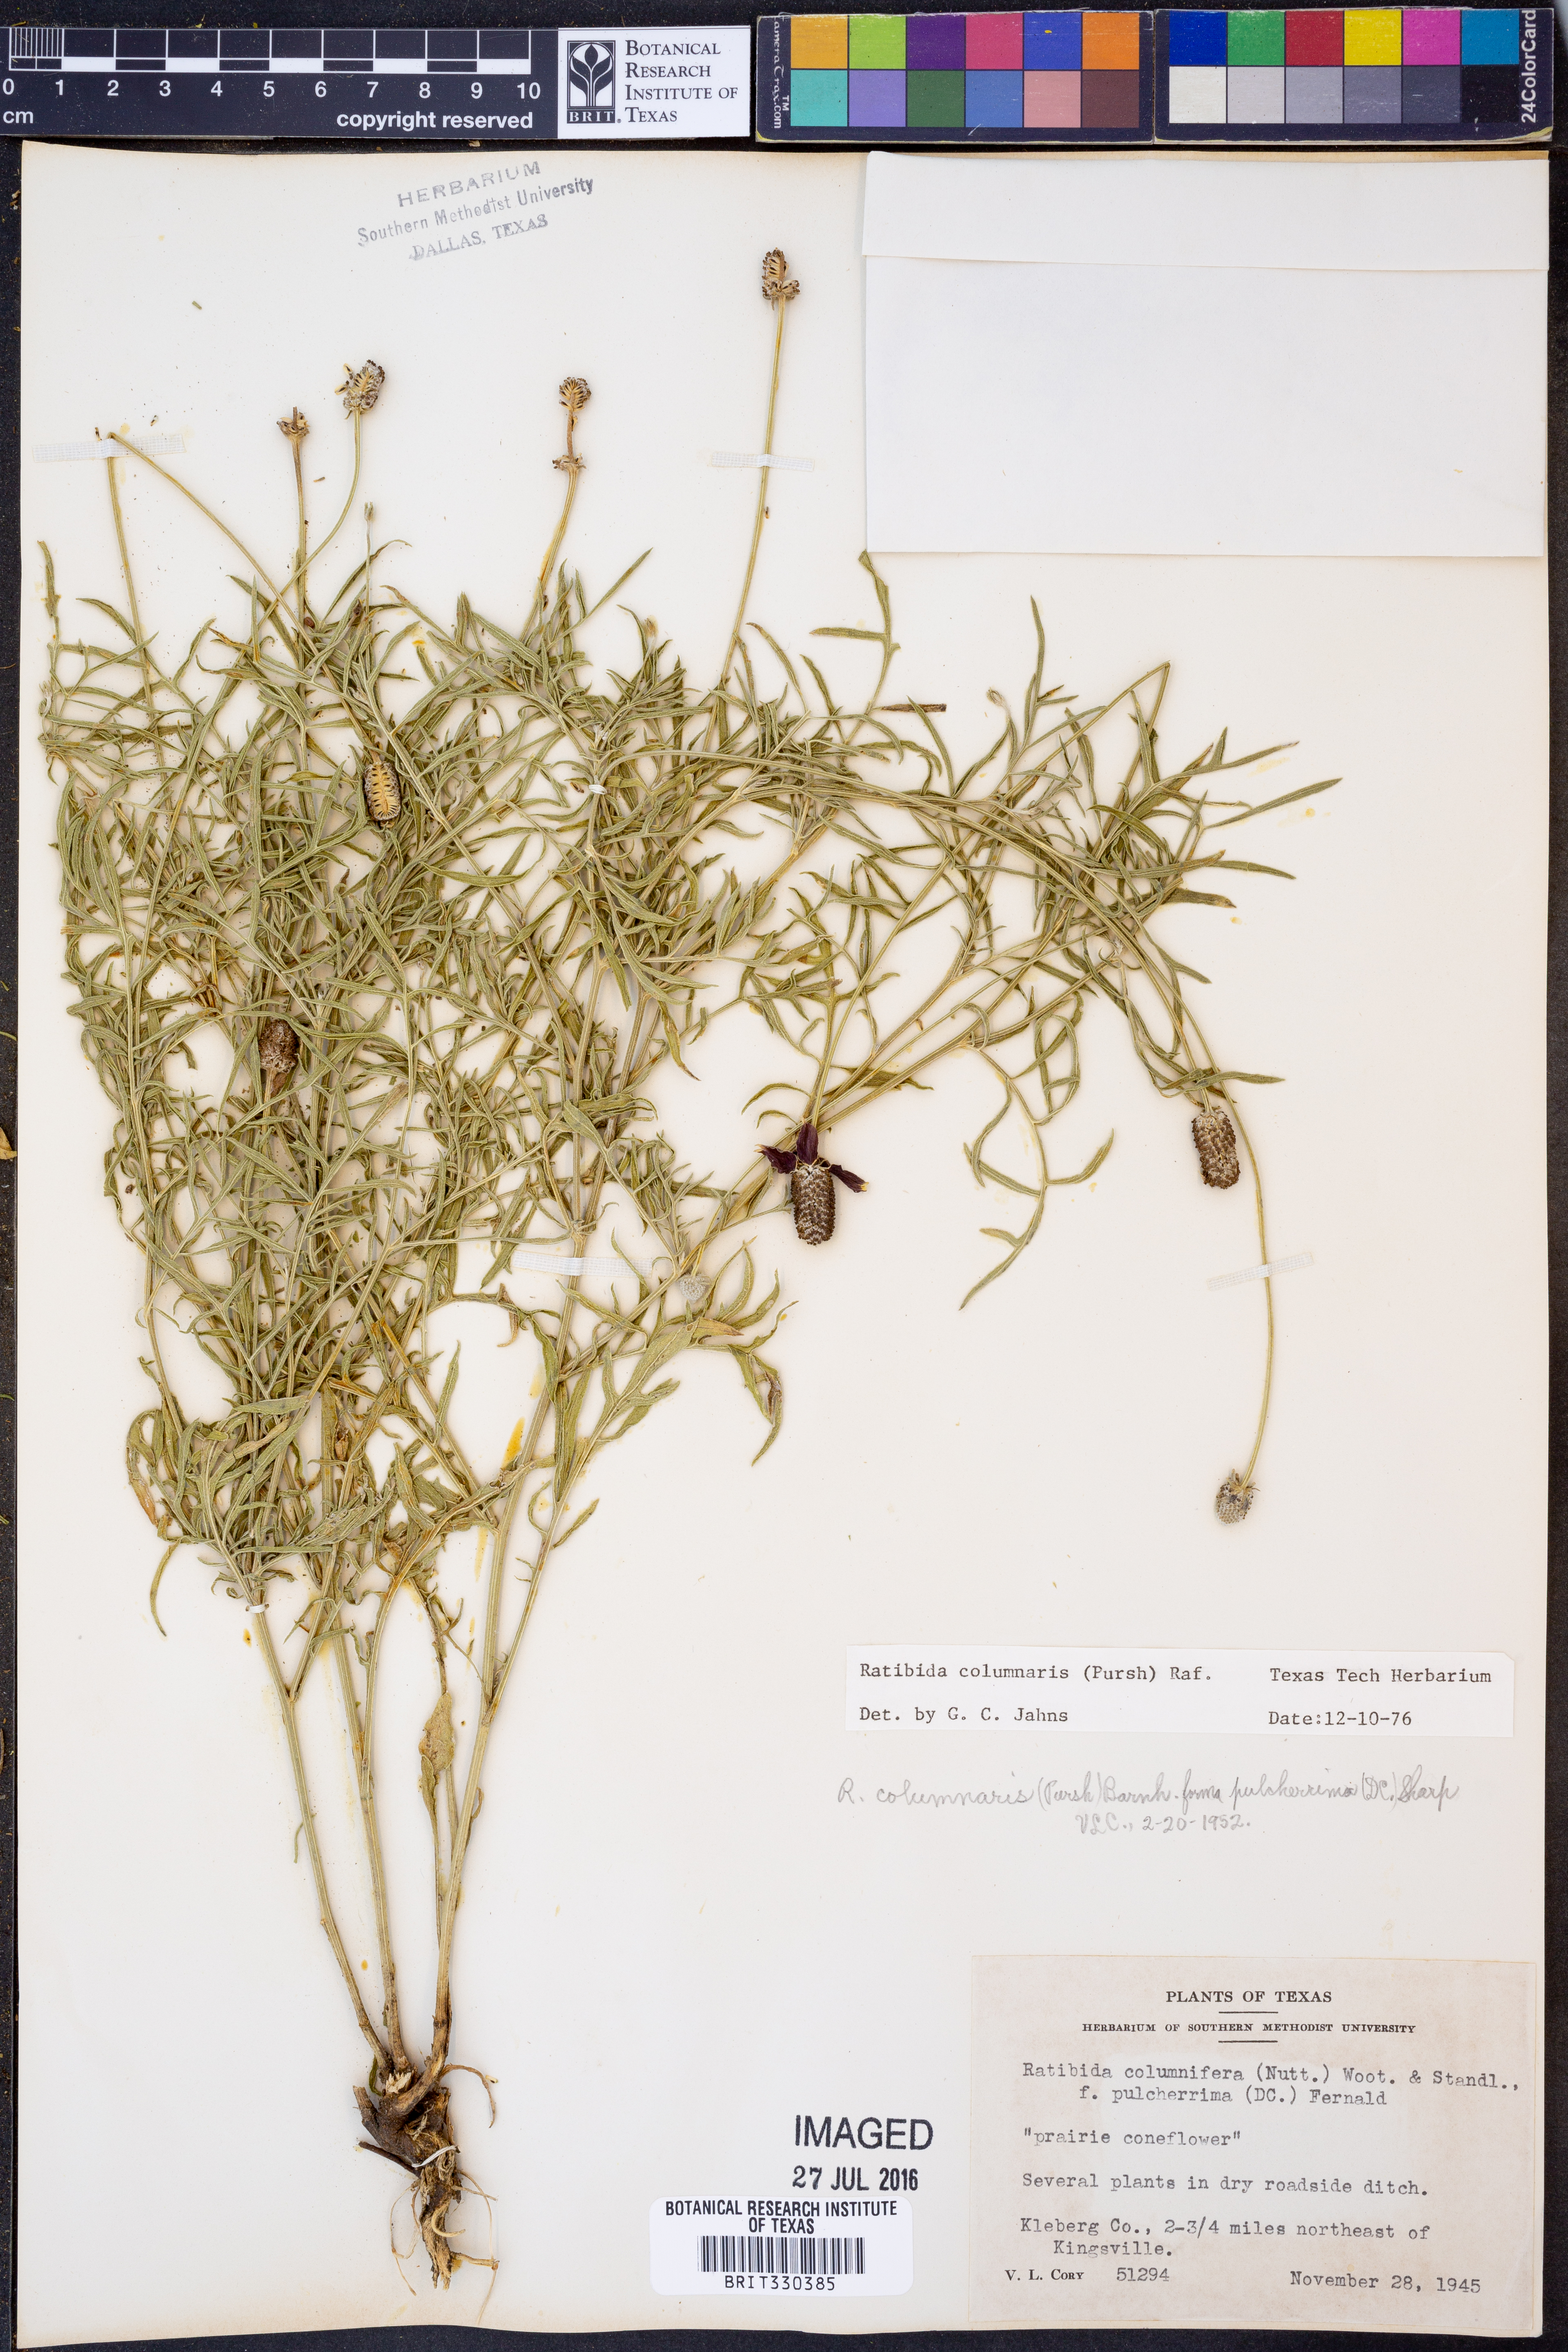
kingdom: Plantae
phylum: Tracheophyta
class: Magnoliopsida
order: Asterales
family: Asteraceae
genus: Ratibida
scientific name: Ratibida columnifera
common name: Prairie coneflower
